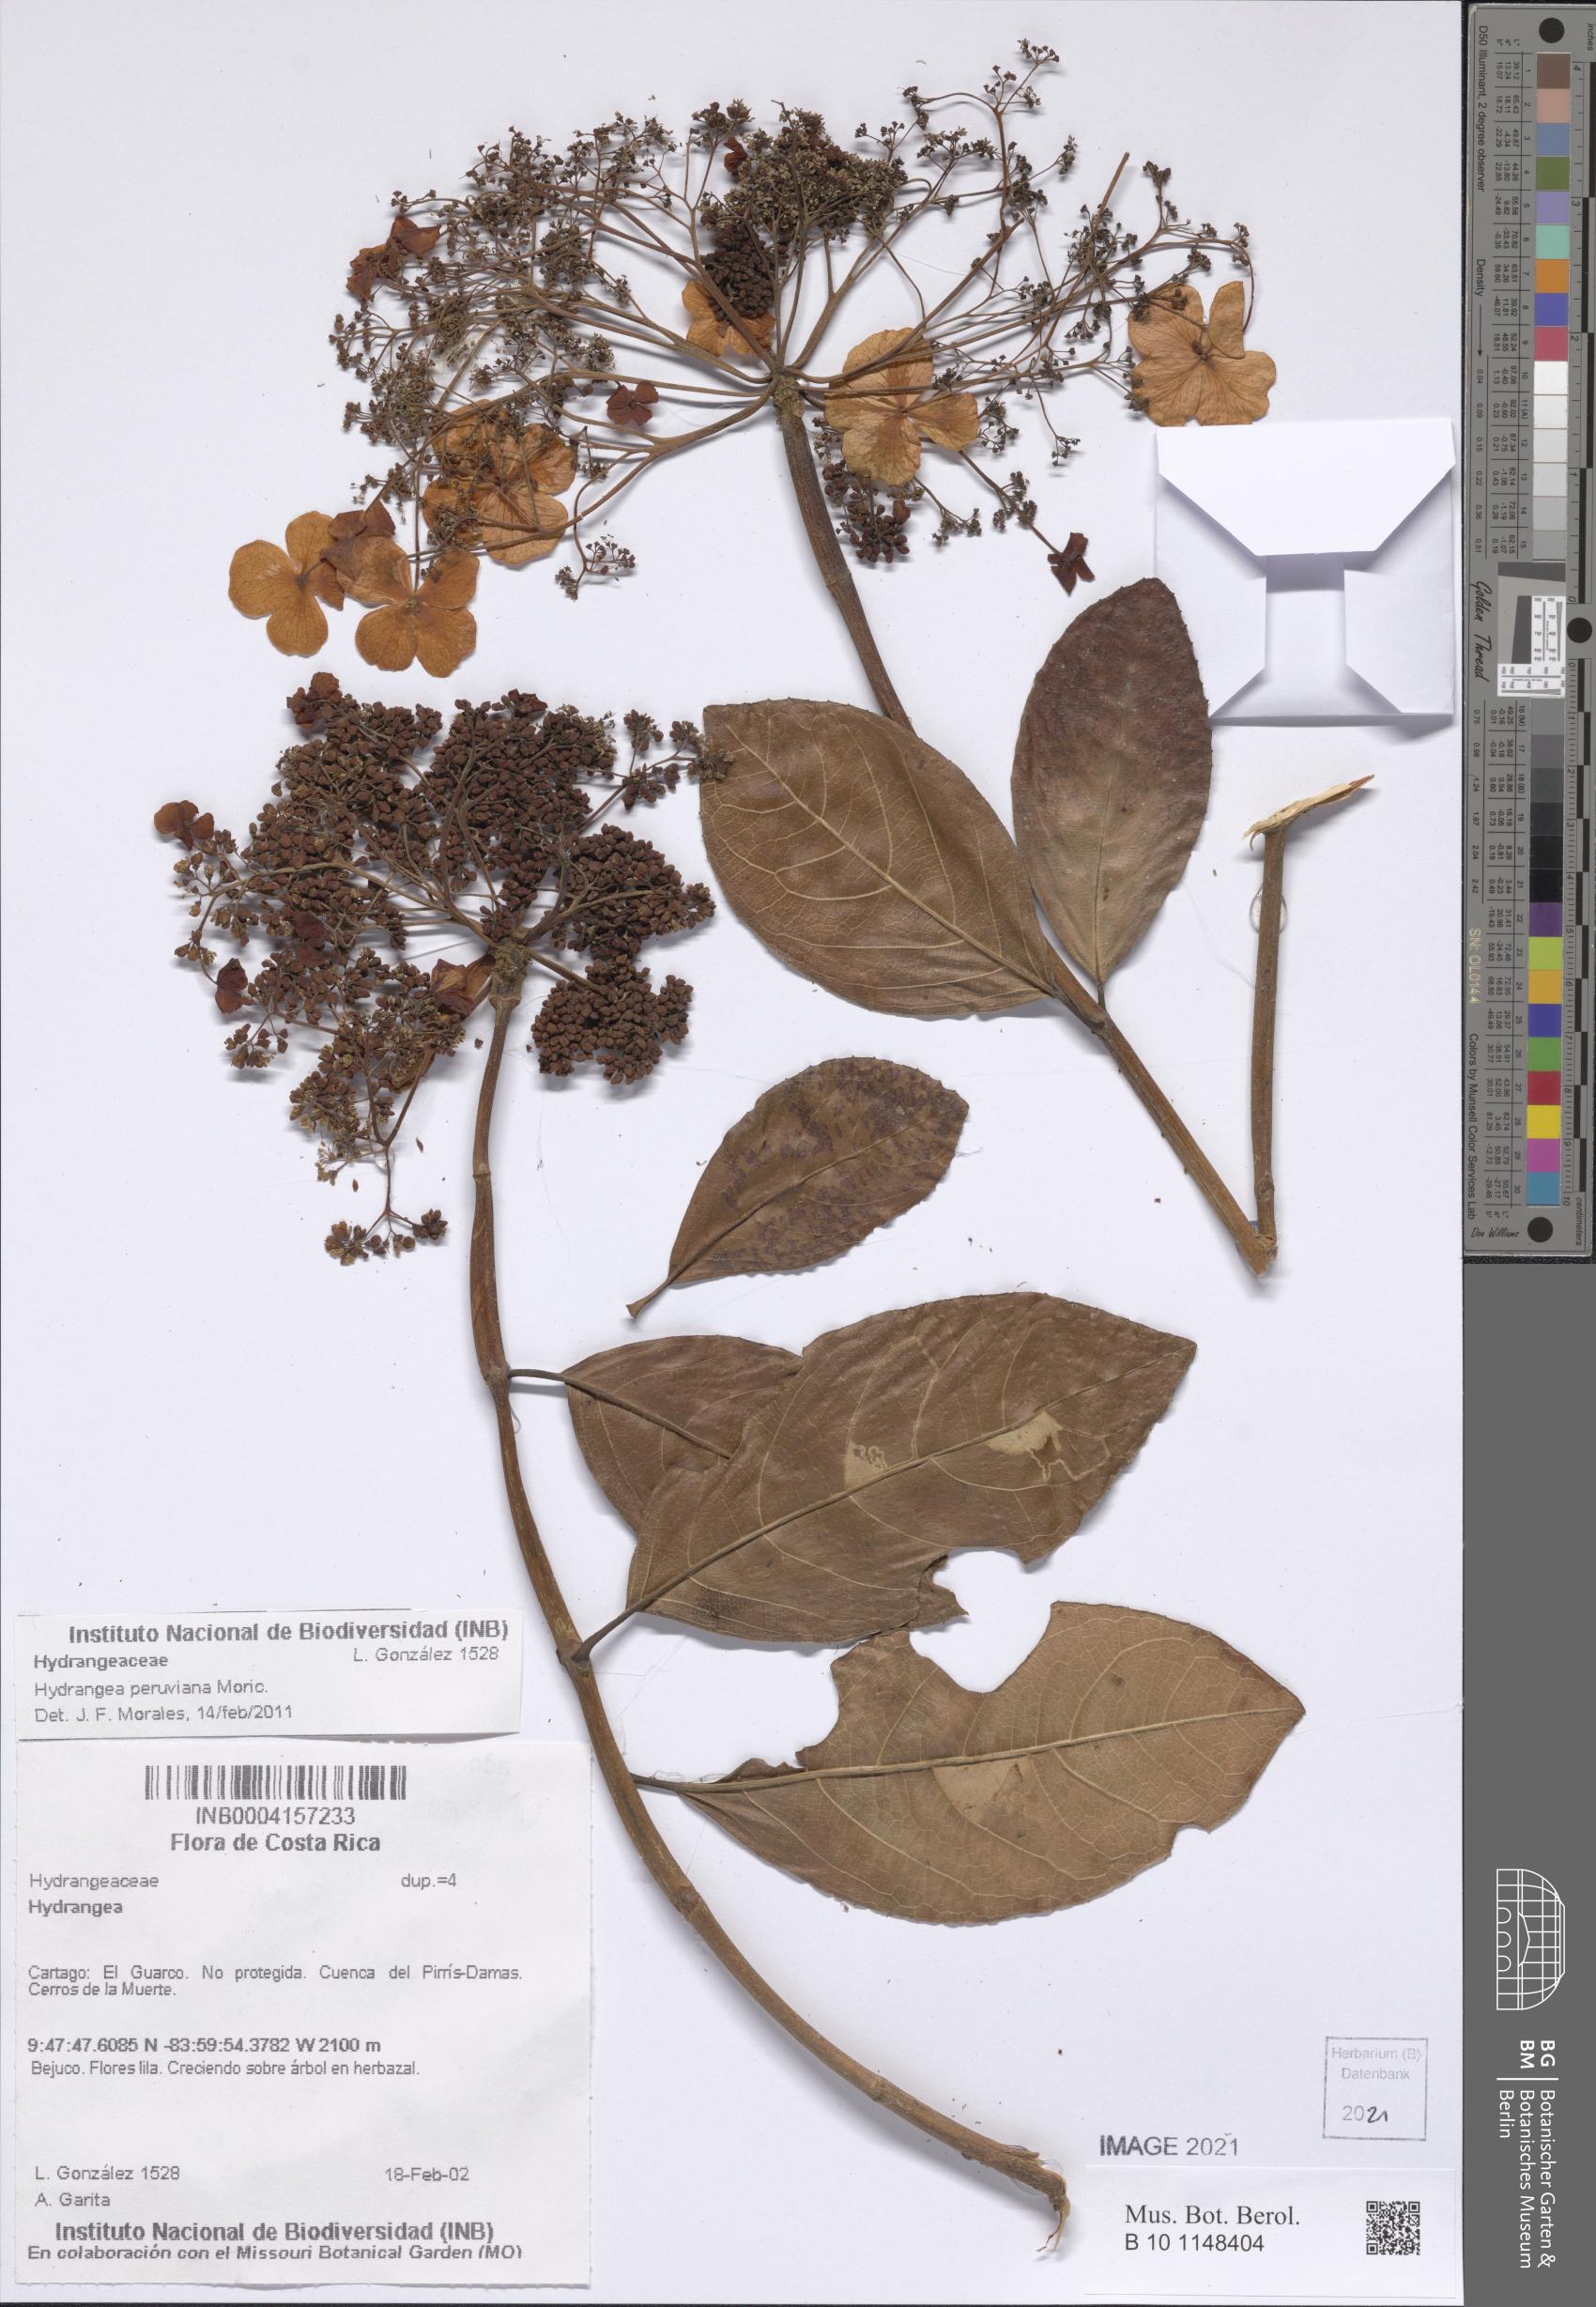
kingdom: Plantae
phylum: Tracheophyta
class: Magnoliopsida
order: Cornales
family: Hydrangeaceae
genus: Hydrangea
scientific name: Hydrangea peruviana
